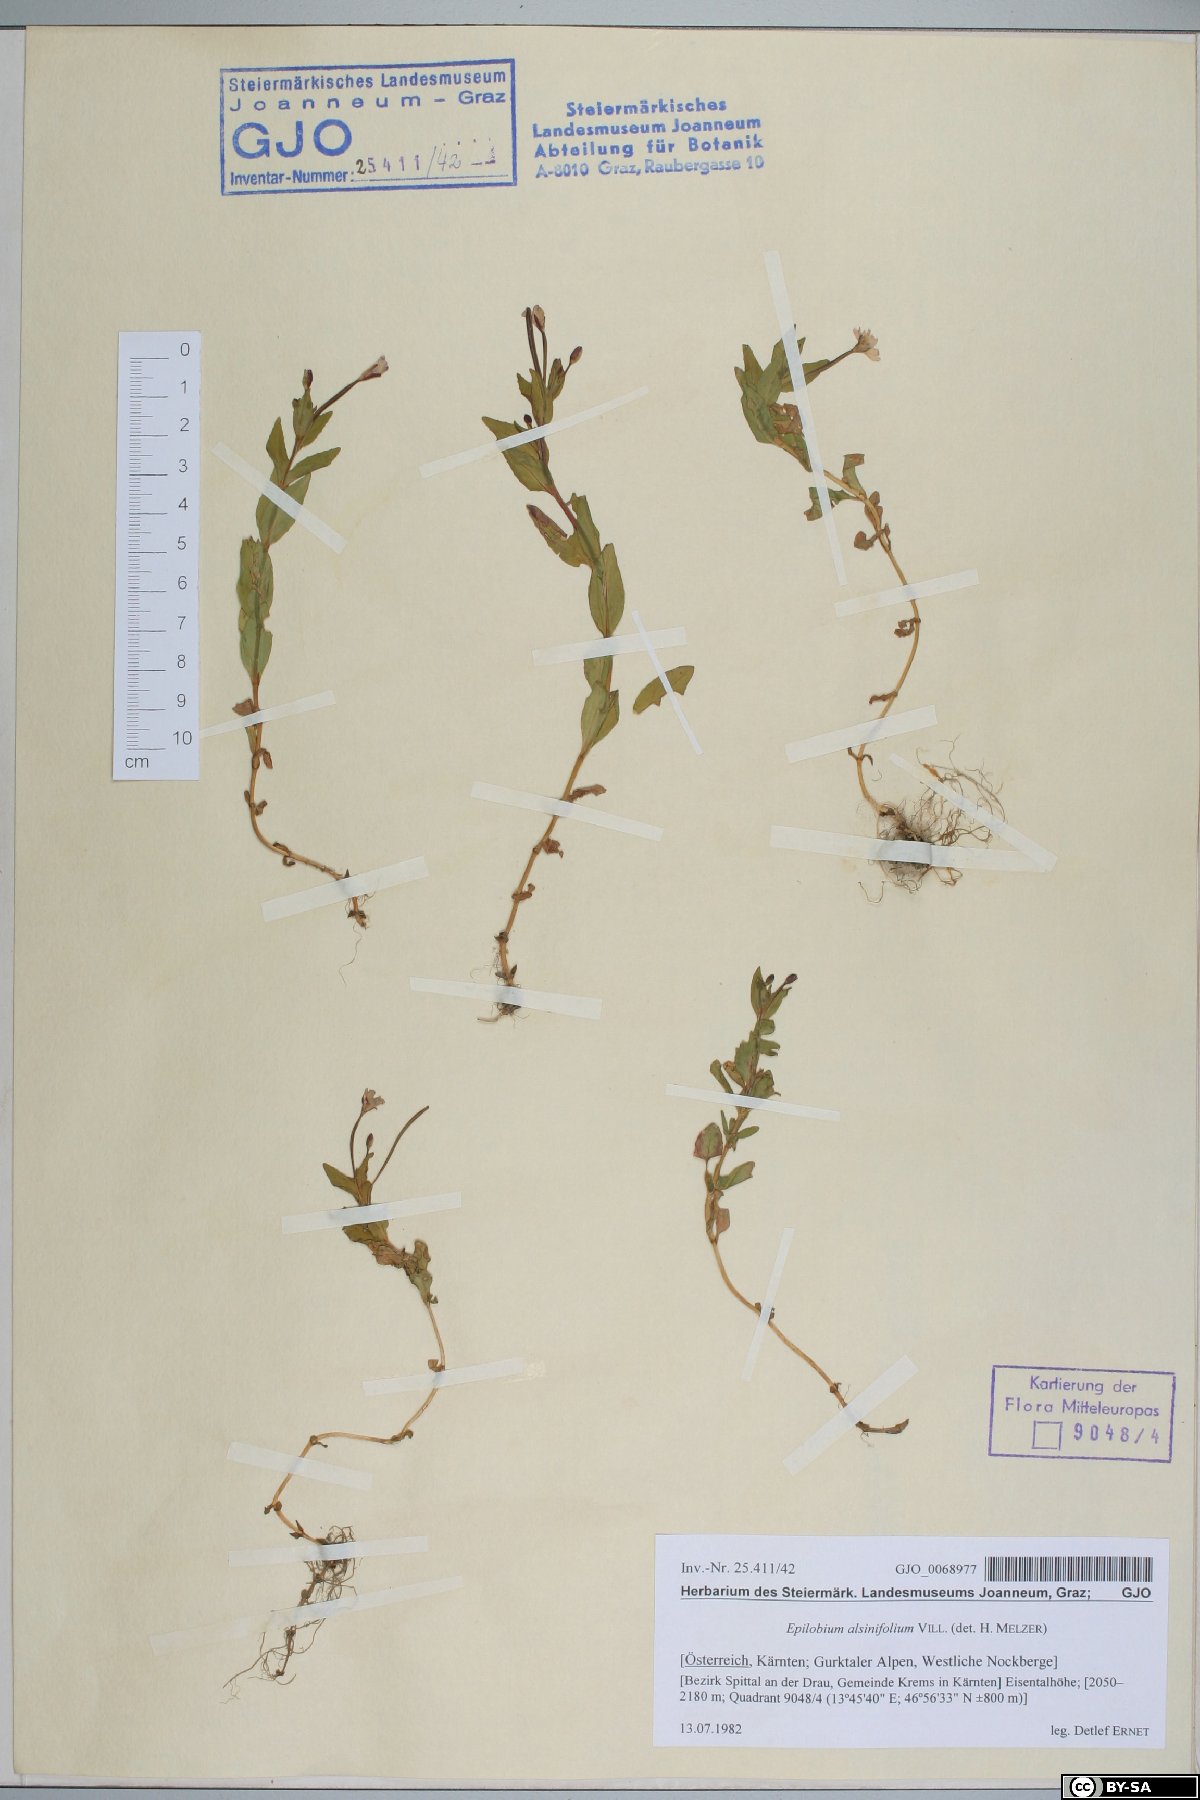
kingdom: Plantae
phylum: Tracheophyta
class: Magnoliopsida
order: Myrtales
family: Onagraceae
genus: Epilobium
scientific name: Epilobium alsinifolium
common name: Chickweed willowherb
